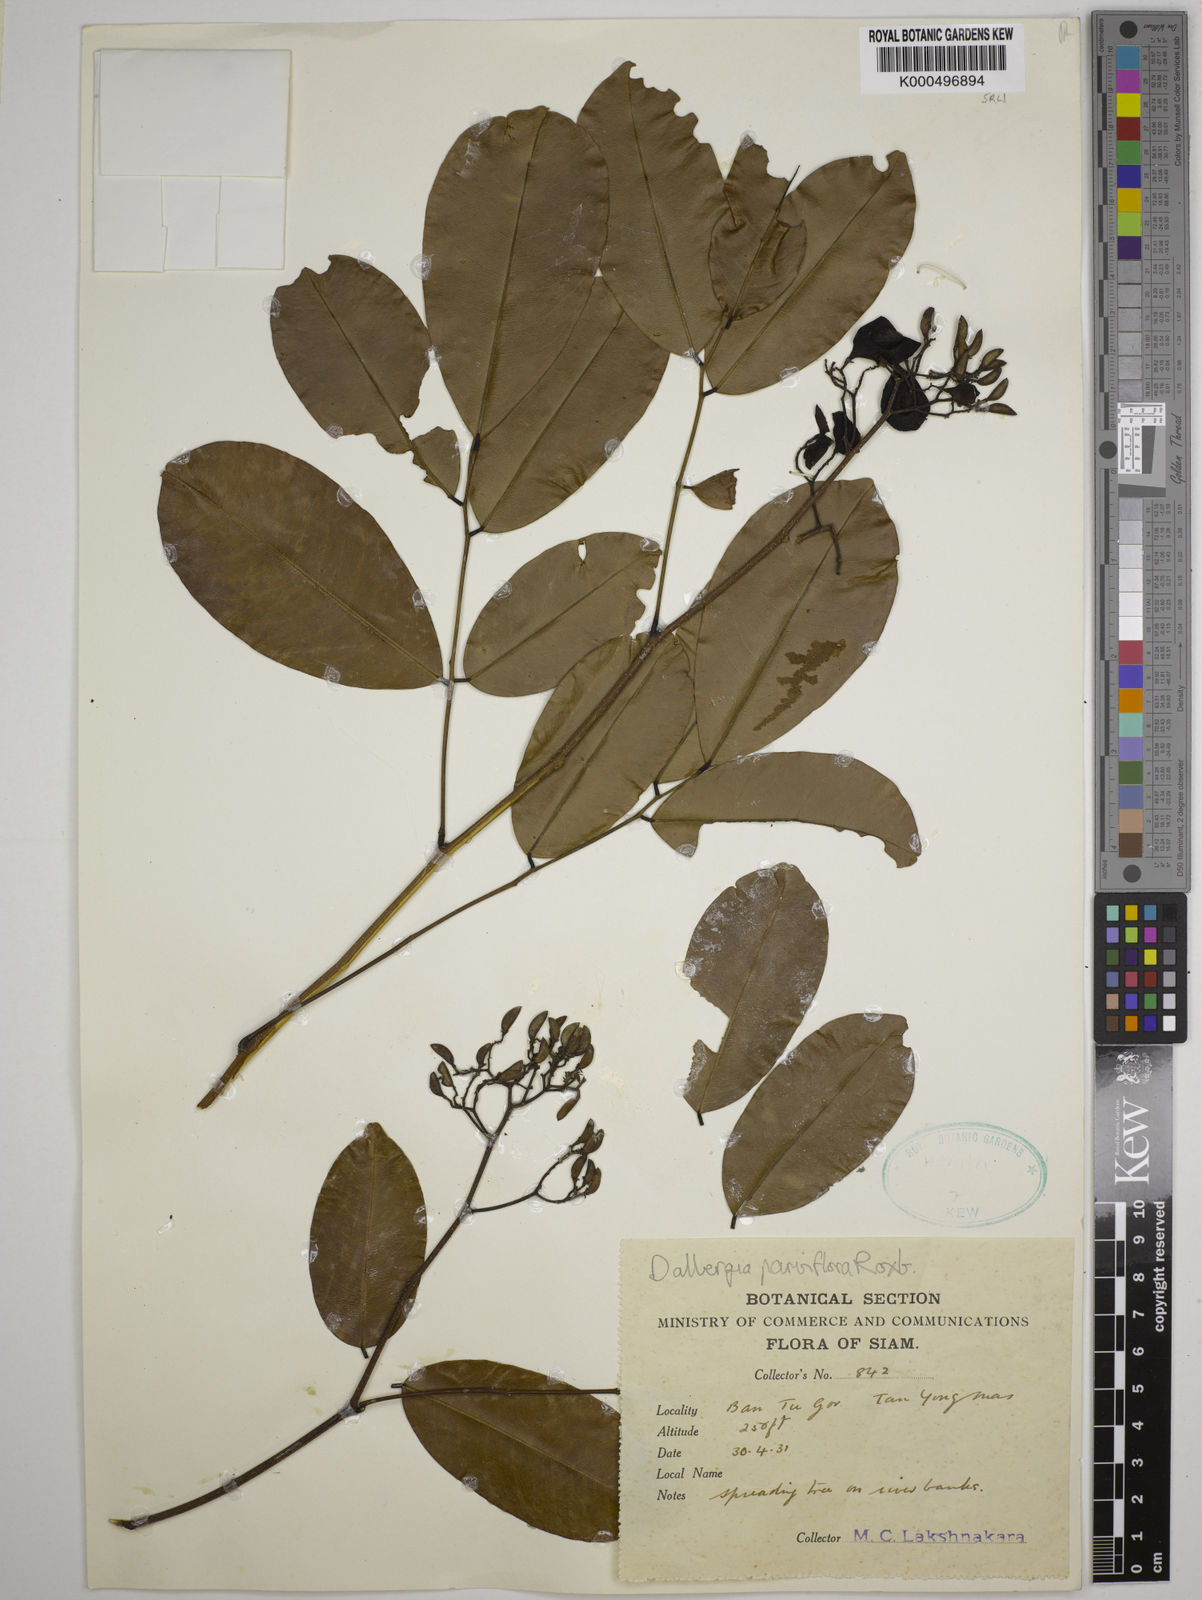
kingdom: Plantae
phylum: Tracheophyta
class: Magnoliopsida
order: Fabales
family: Fabaceae
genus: Dalbergia
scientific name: Dalbergia parviflora
